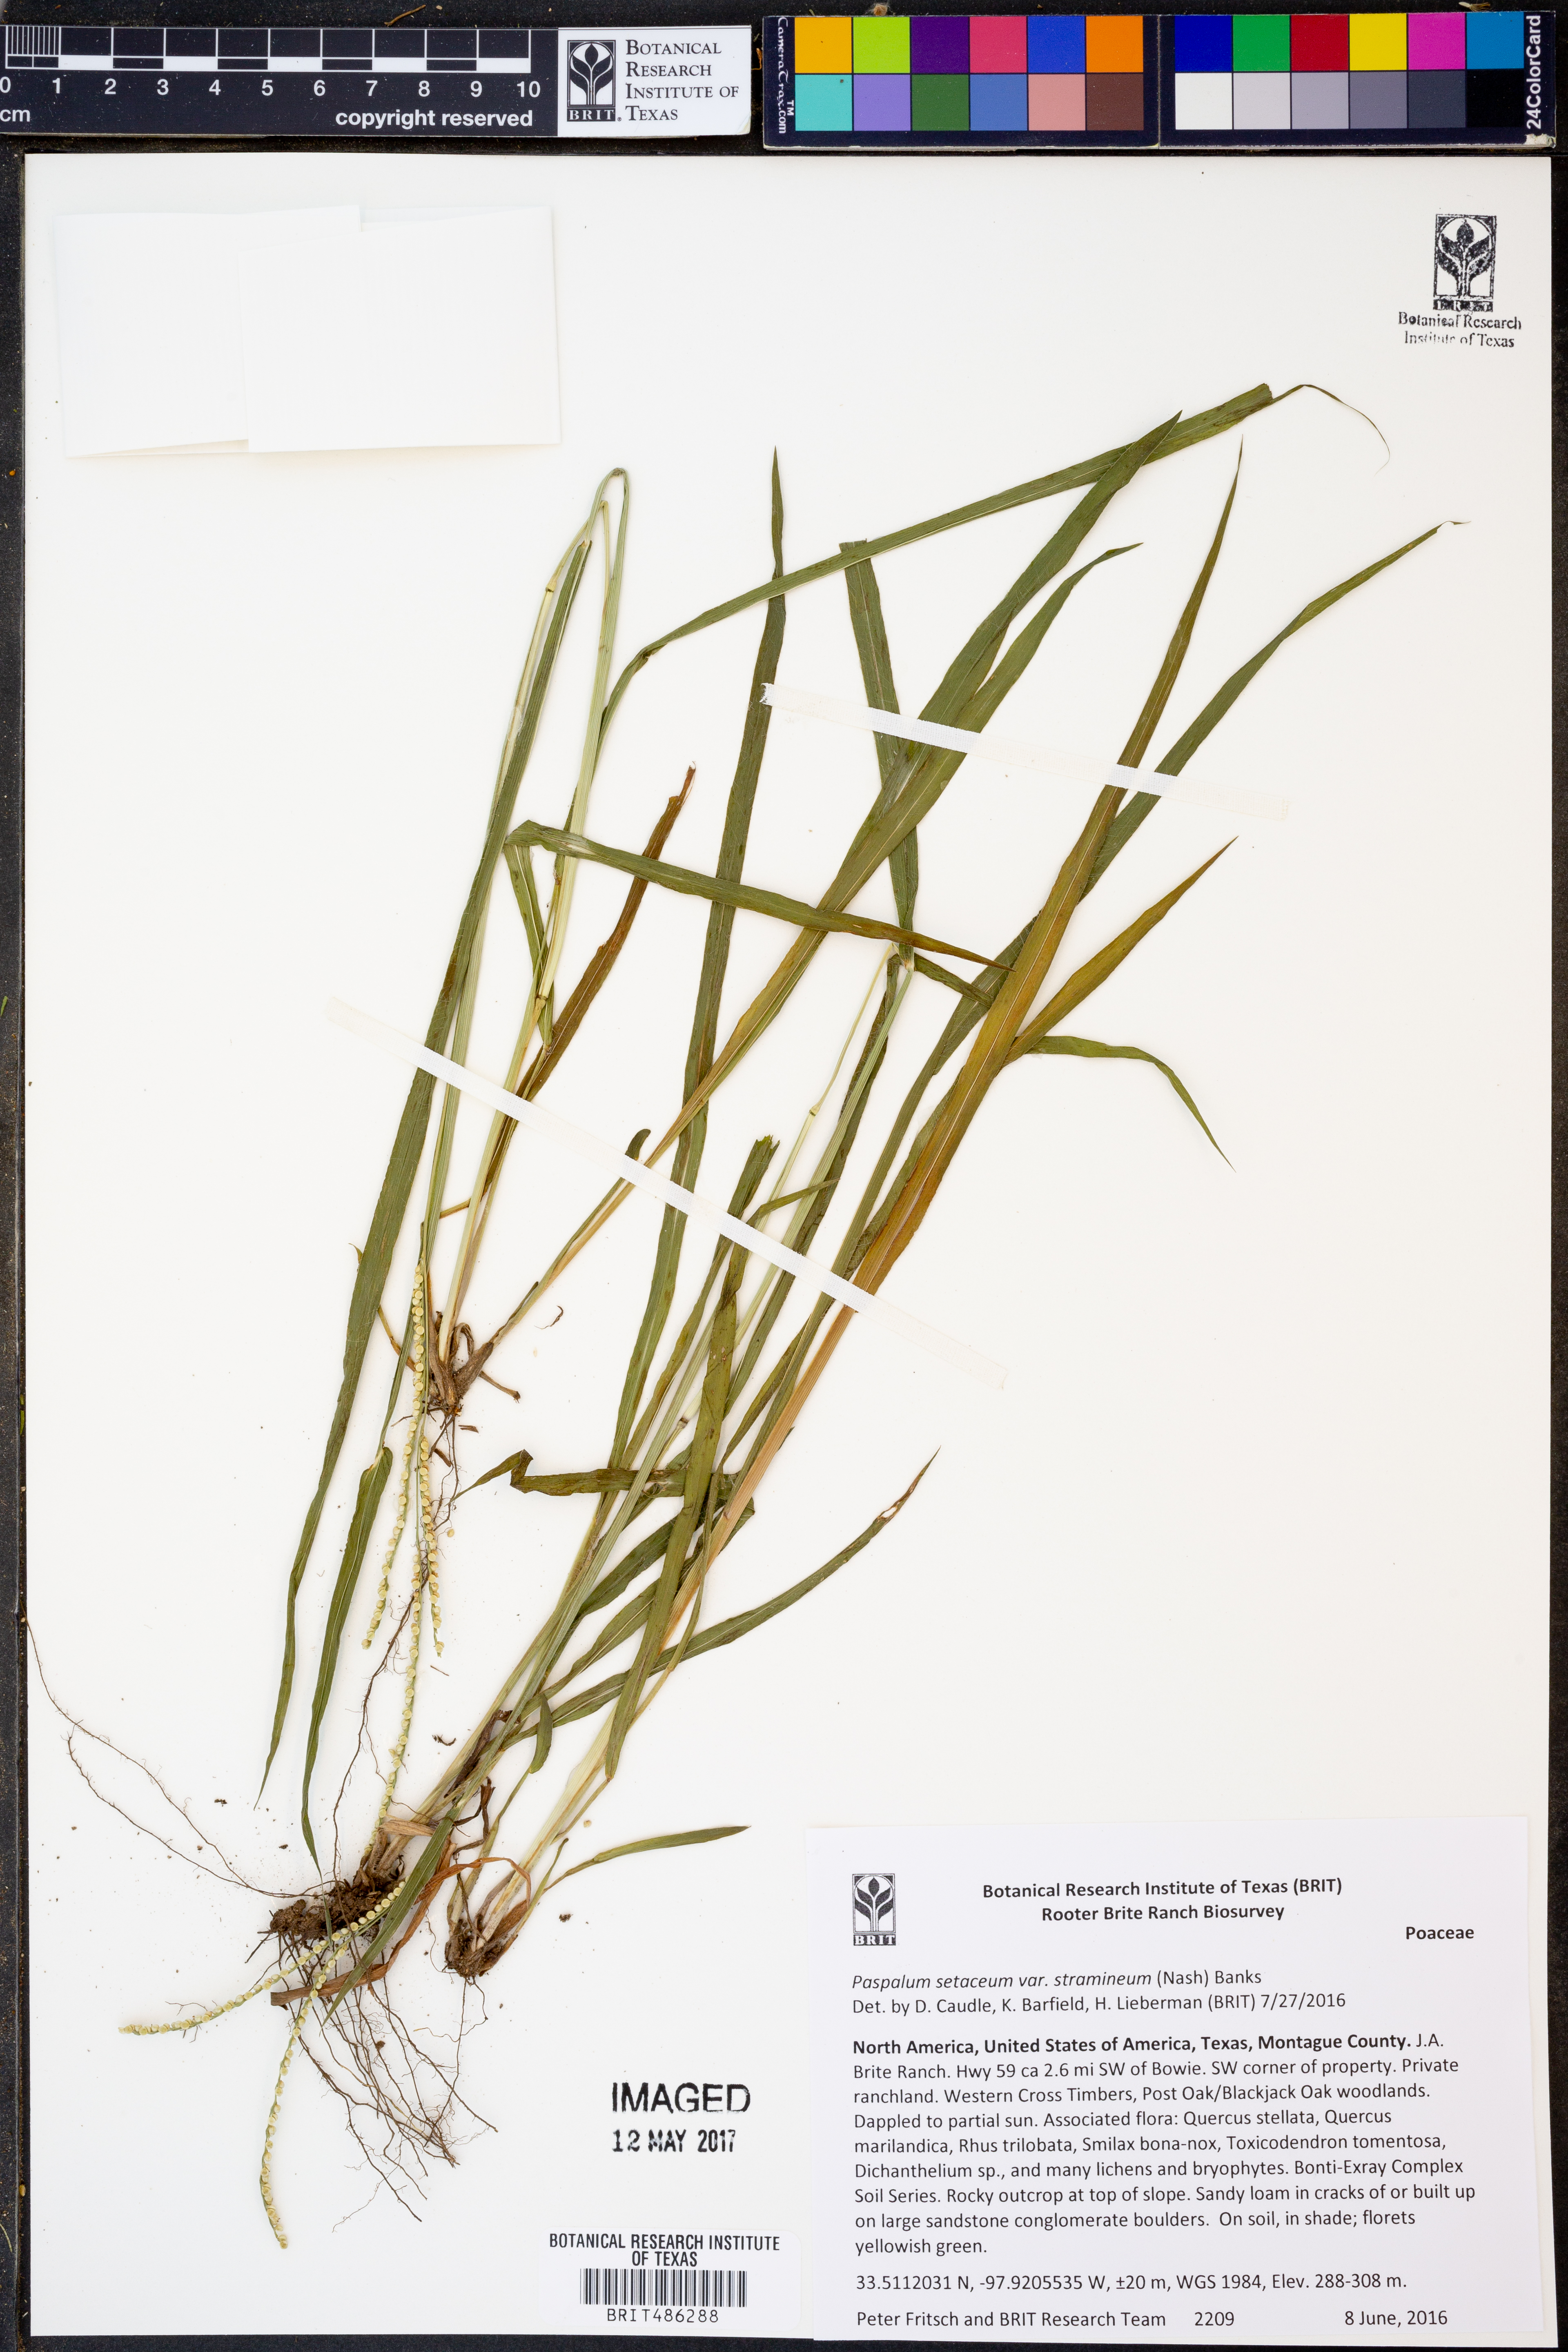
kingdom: Plantae
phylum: Tracheophyta
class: Liliopsida
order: Poales
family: Poaceae
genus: Paspalum
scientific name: Paspalum setaceum
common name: Slender paspalum
